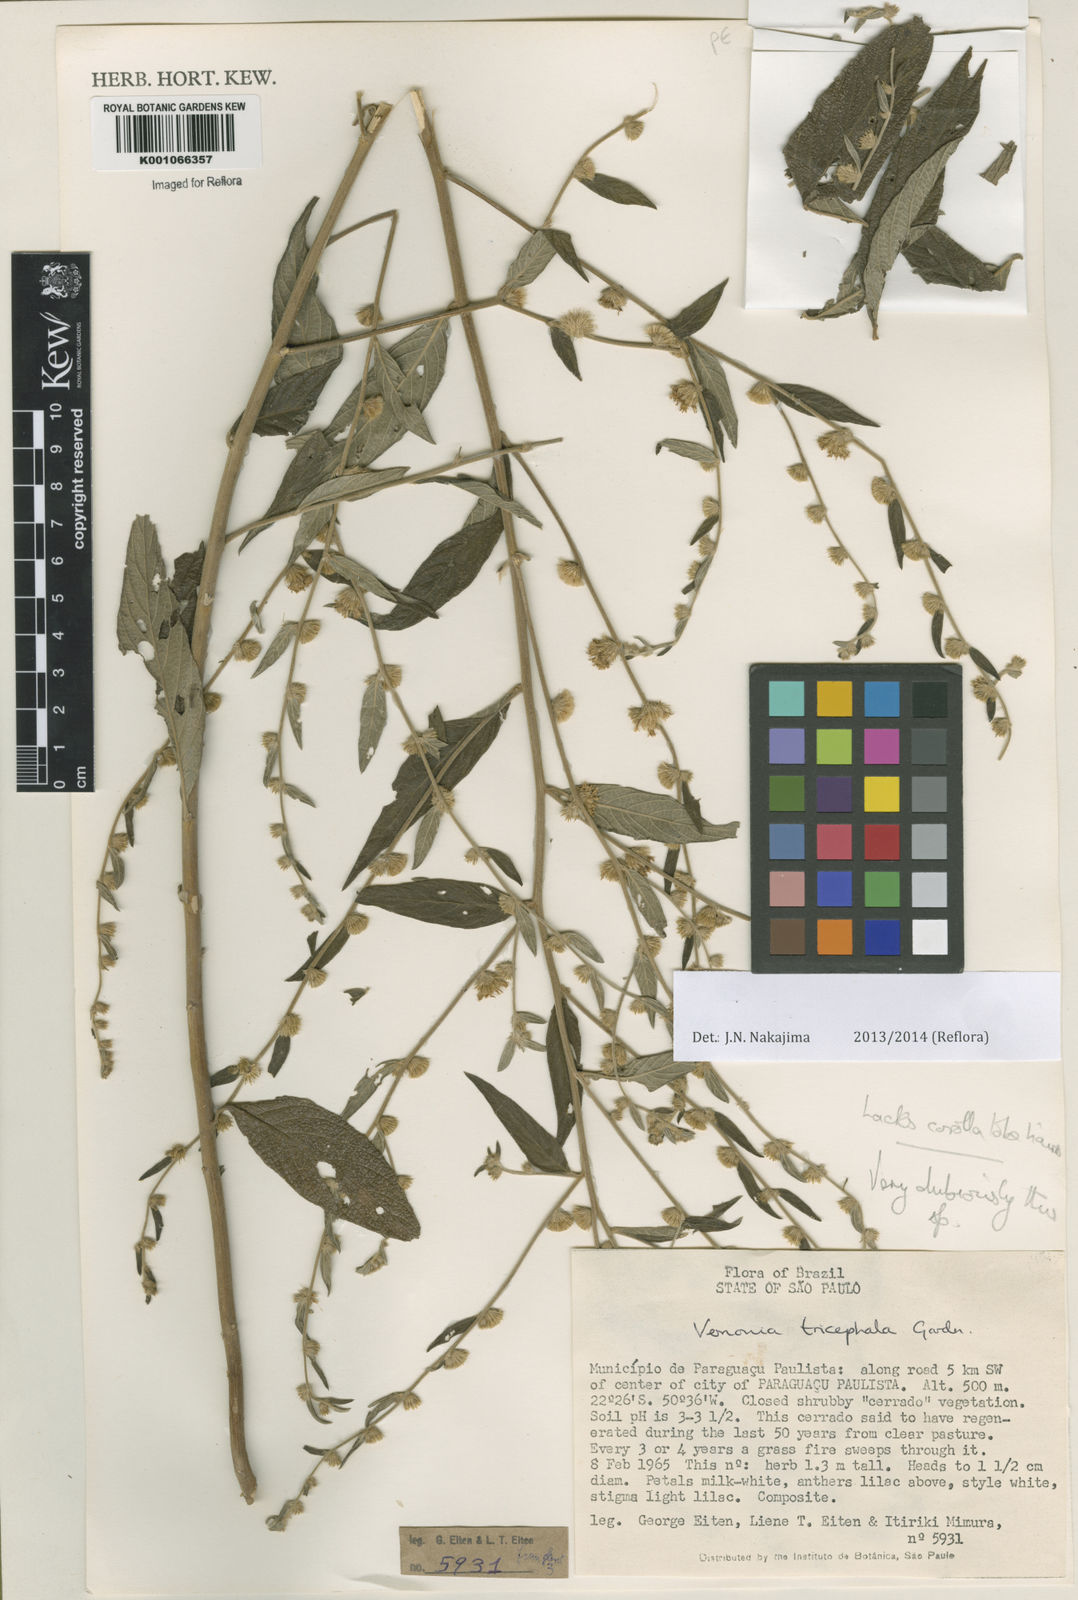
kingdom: Plantae
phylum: Tracheophyta
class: Magnoliopsida
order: Asterales
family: Asteraceae
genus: Lepidaploa
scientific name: Lepidaploa chamissonis
